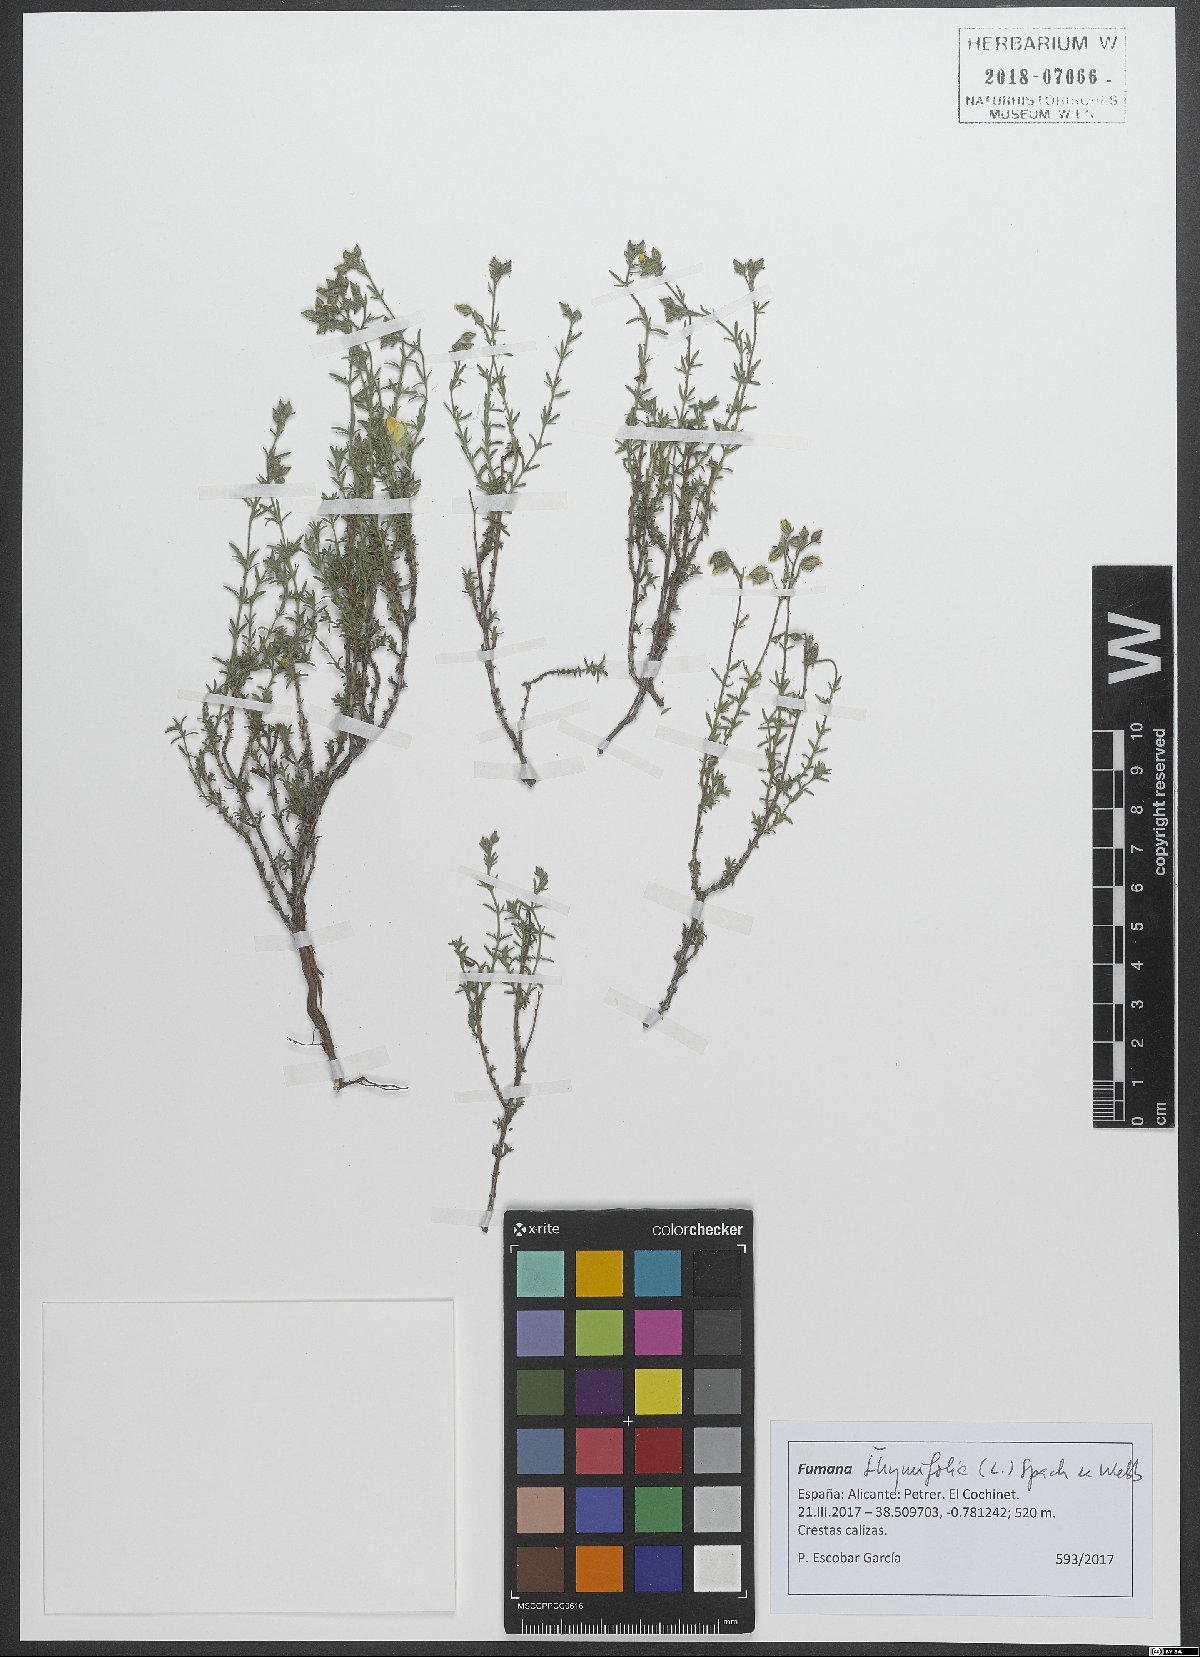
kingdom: Plantae
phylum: Tracheophyta
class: Magnoliopsida
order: Malvales
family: Cistaceae
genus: Fumana
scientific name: Fumana thymifolia
